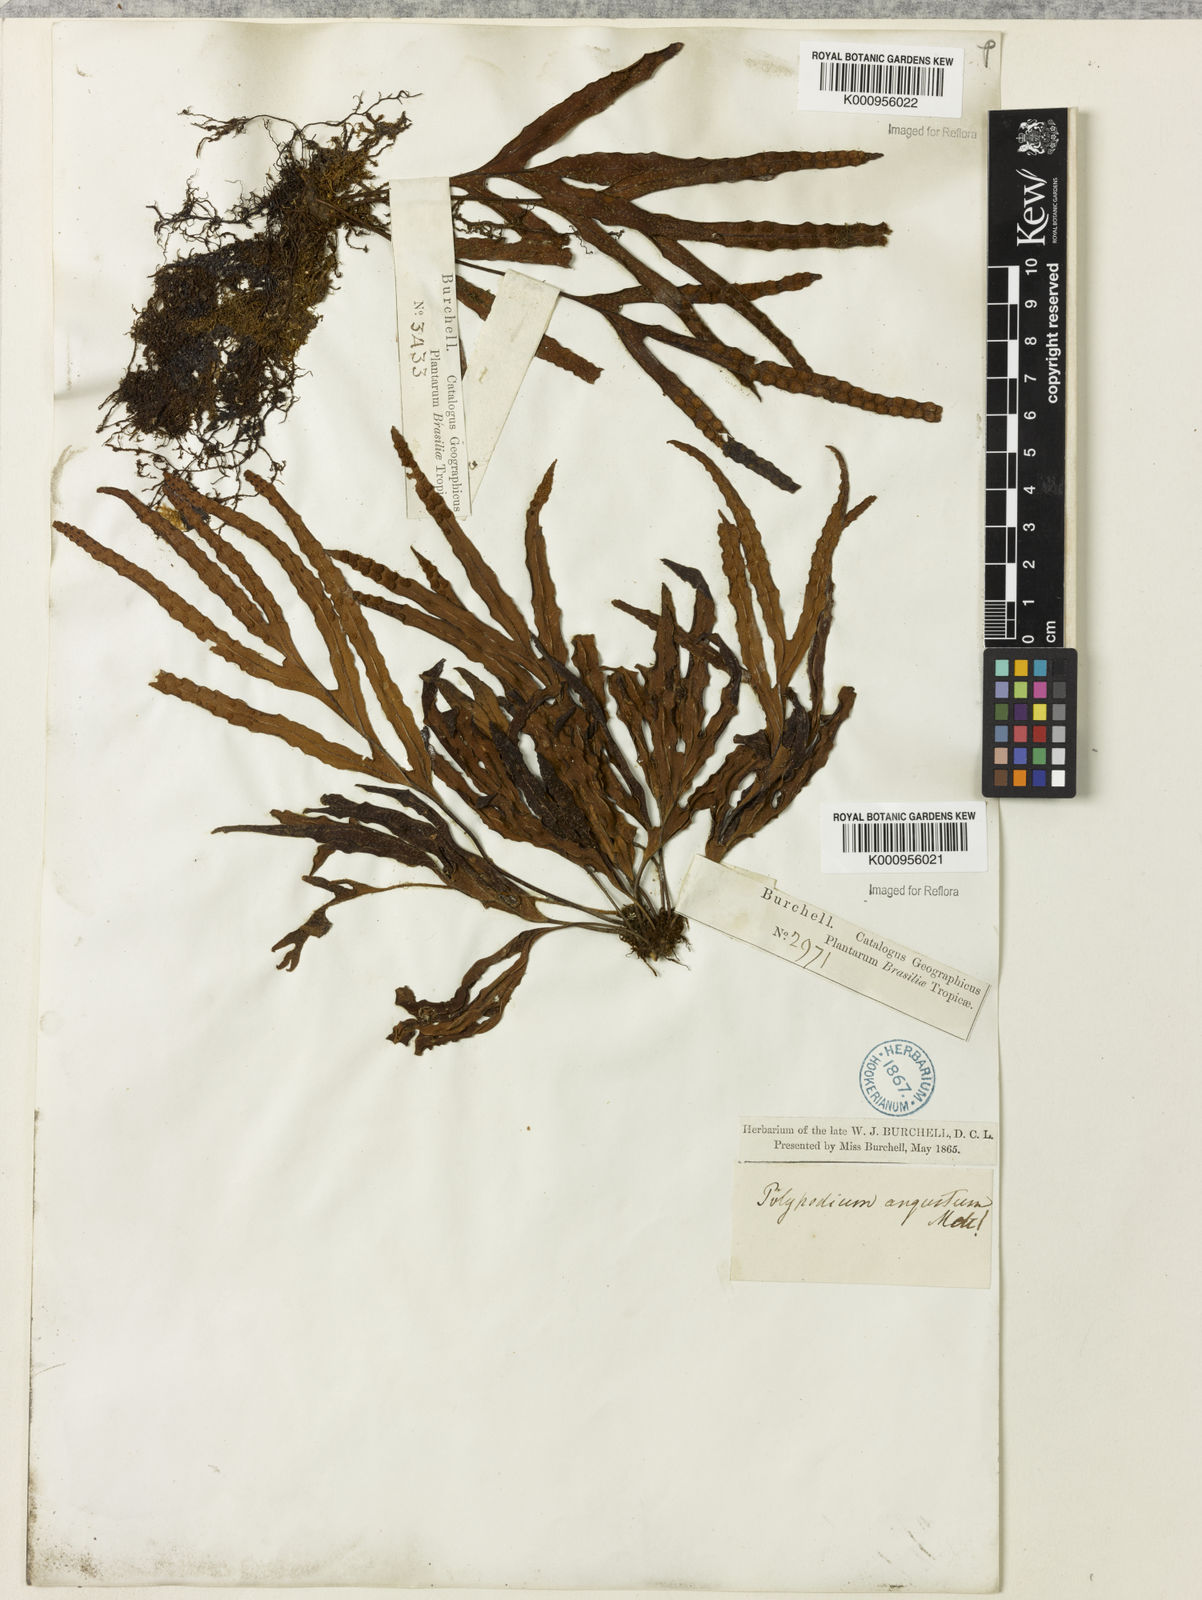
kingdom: Plantae
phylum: Tracheophyta
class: Polypodiopsida
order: Polypodiales
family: Polypodiaceae
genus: Pleopeltis
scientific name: Pleopeltis angusta
